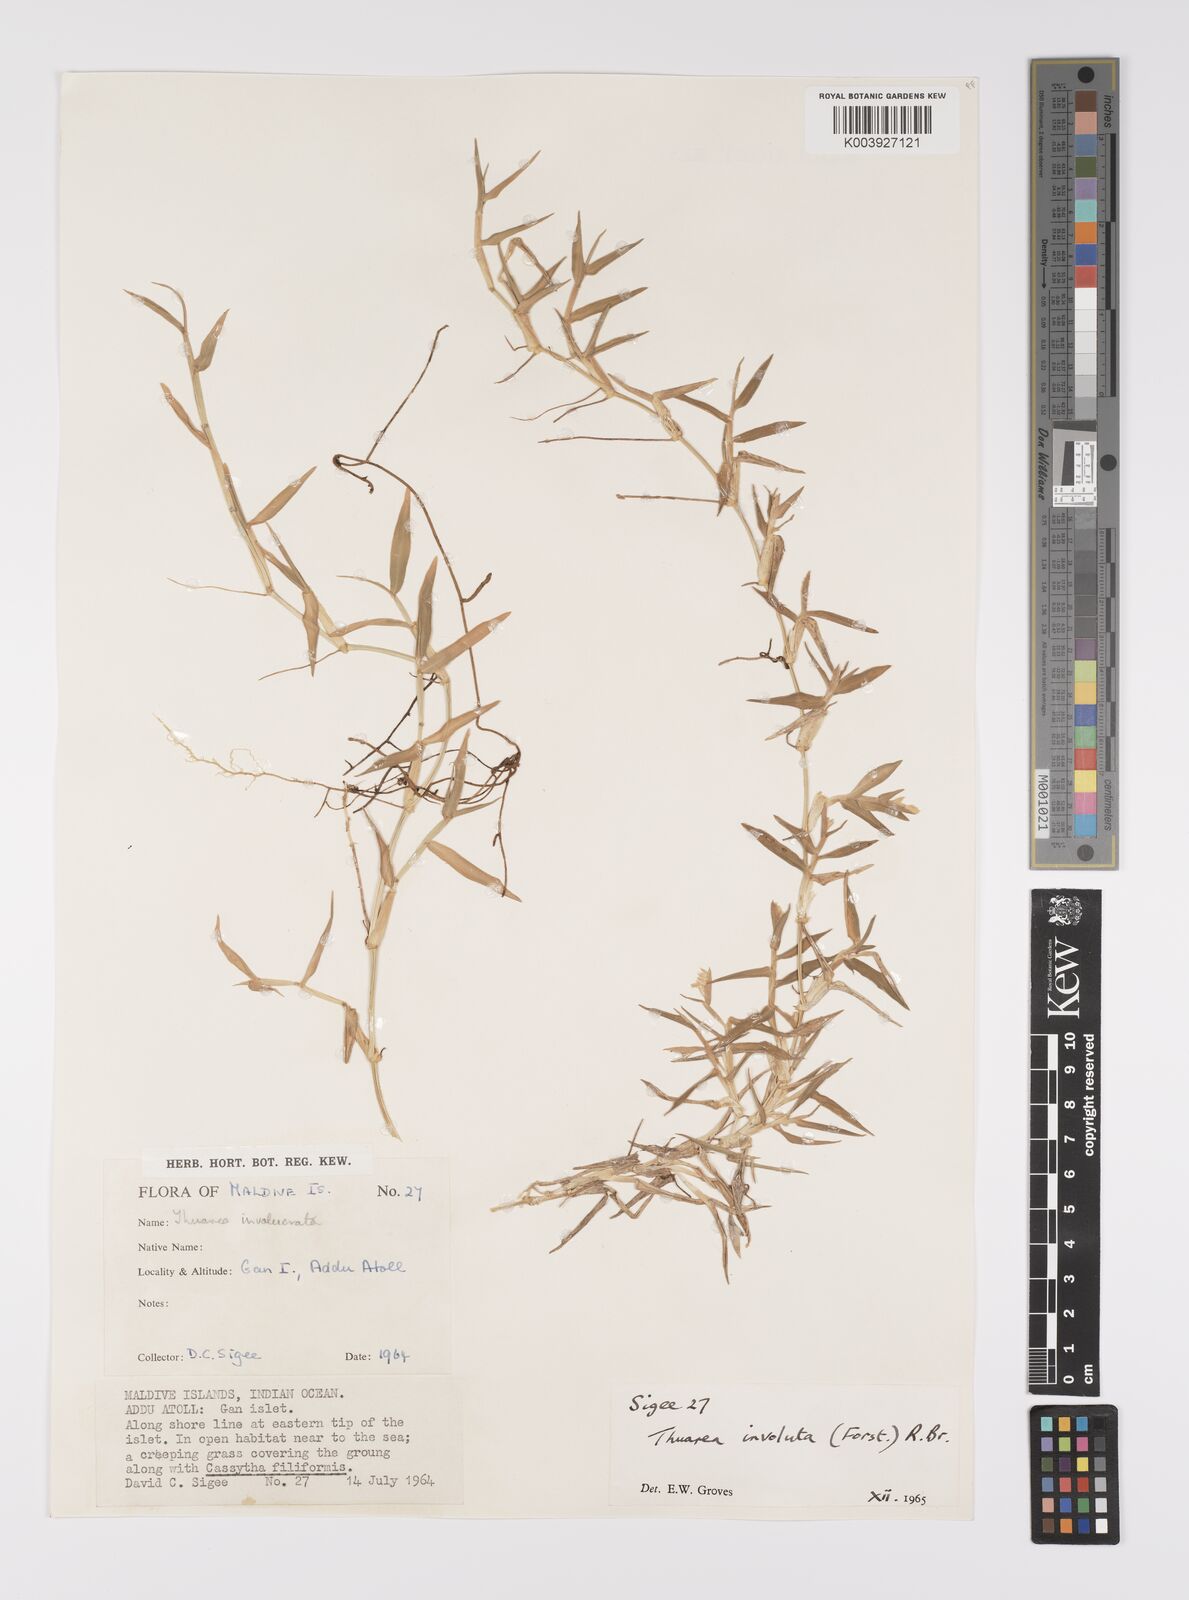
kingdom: Plantae
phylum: Tracheophyta
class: Liliopsida
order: Poales
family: Poaceae
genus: Thuarea
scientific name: Thuarea involuta
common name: Tropical beach grass
